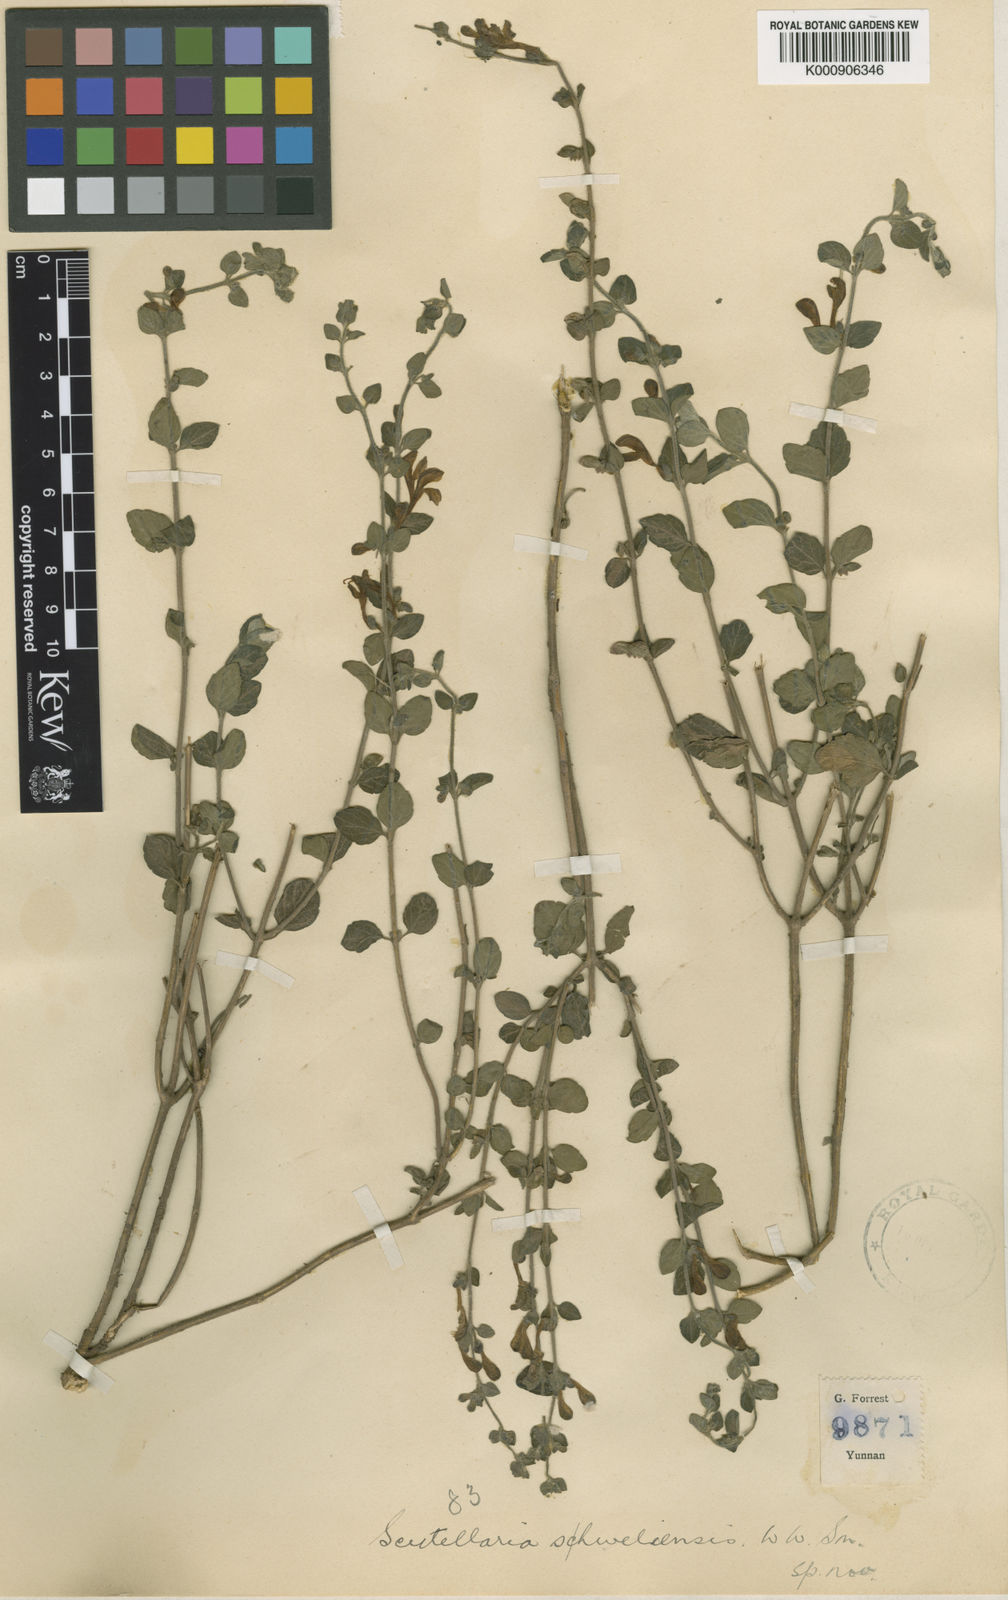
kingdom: Plantae
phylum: Tracheophyta
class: Magnoliopsida
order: Lamiales
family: Lamiaceae
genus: Scutellaria
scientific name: Scutellaria shweliensis
